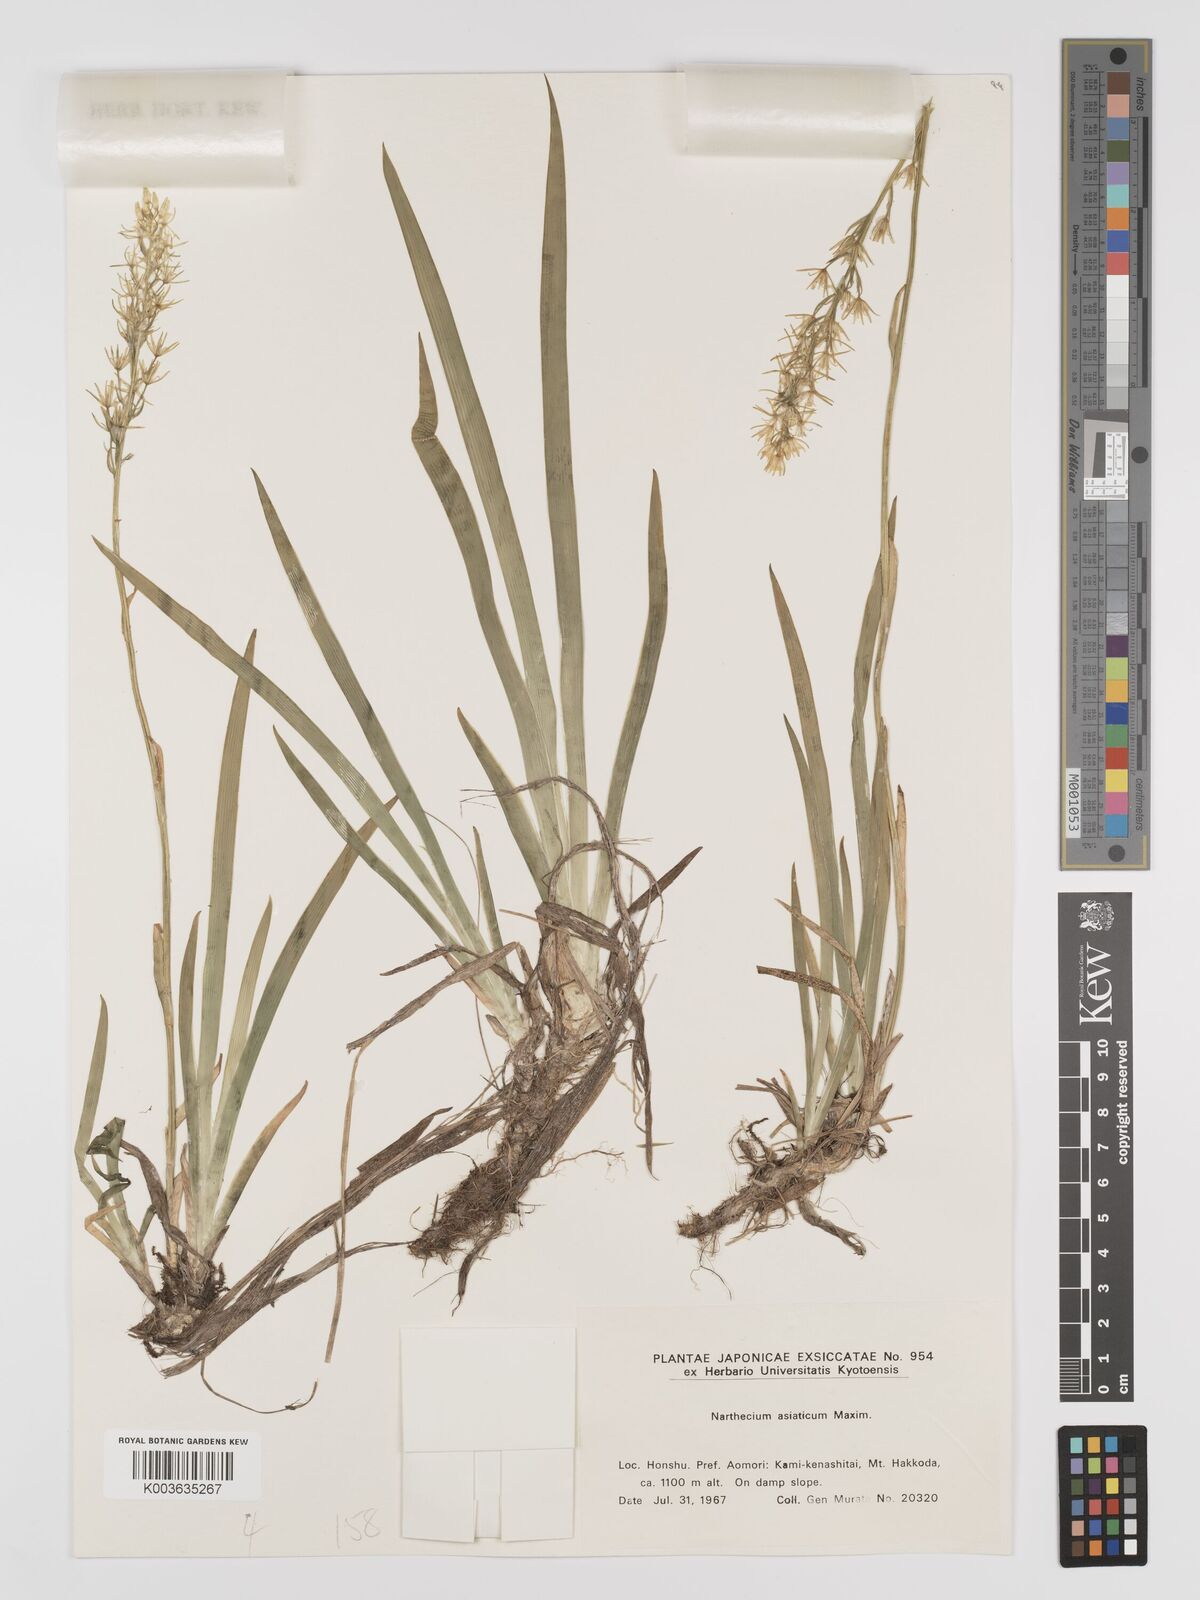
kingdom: Plantae
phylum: Tracheophyta
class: Liliopsida
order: Dioscoreales
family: Nartheciaceae
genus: Narthecium
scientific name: Narthecium asiaticum
